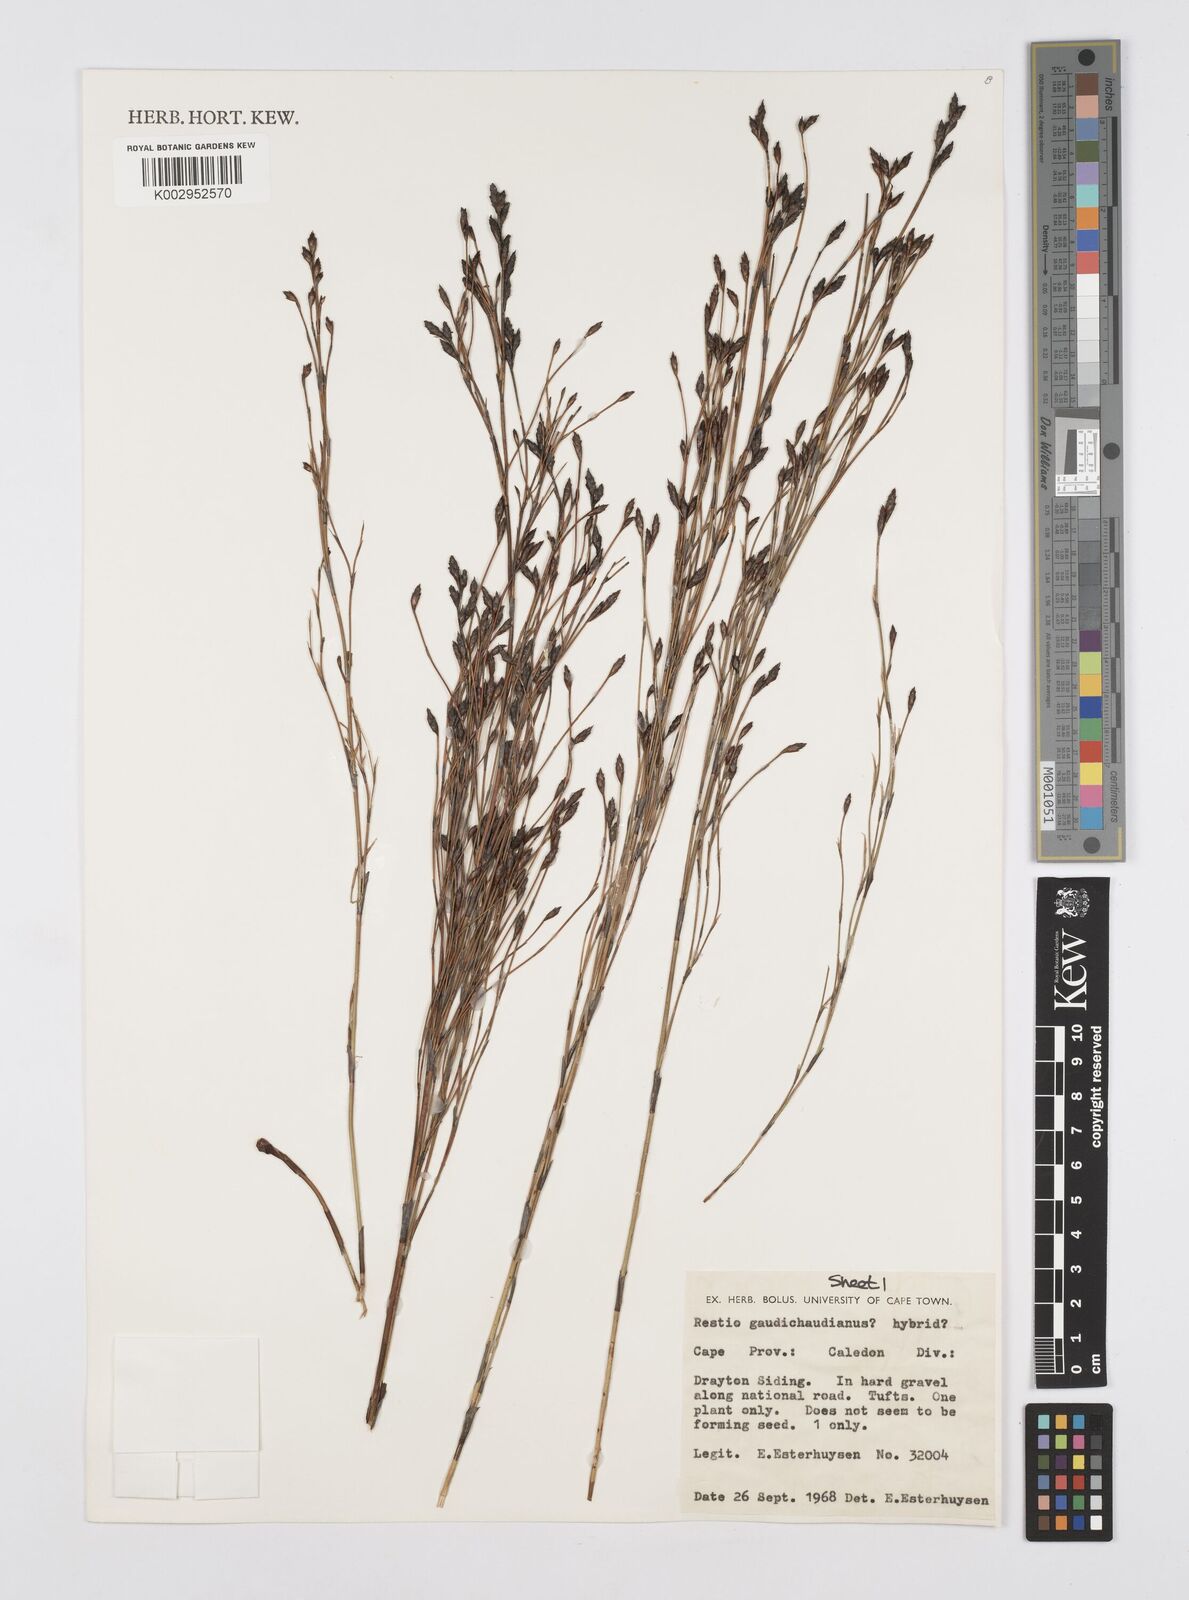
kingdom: Plantae
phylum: Tracheophyta
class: Liliopsida
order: Poales
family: Restionaceae
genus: Restio
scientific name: Restio gaudichaudianus
